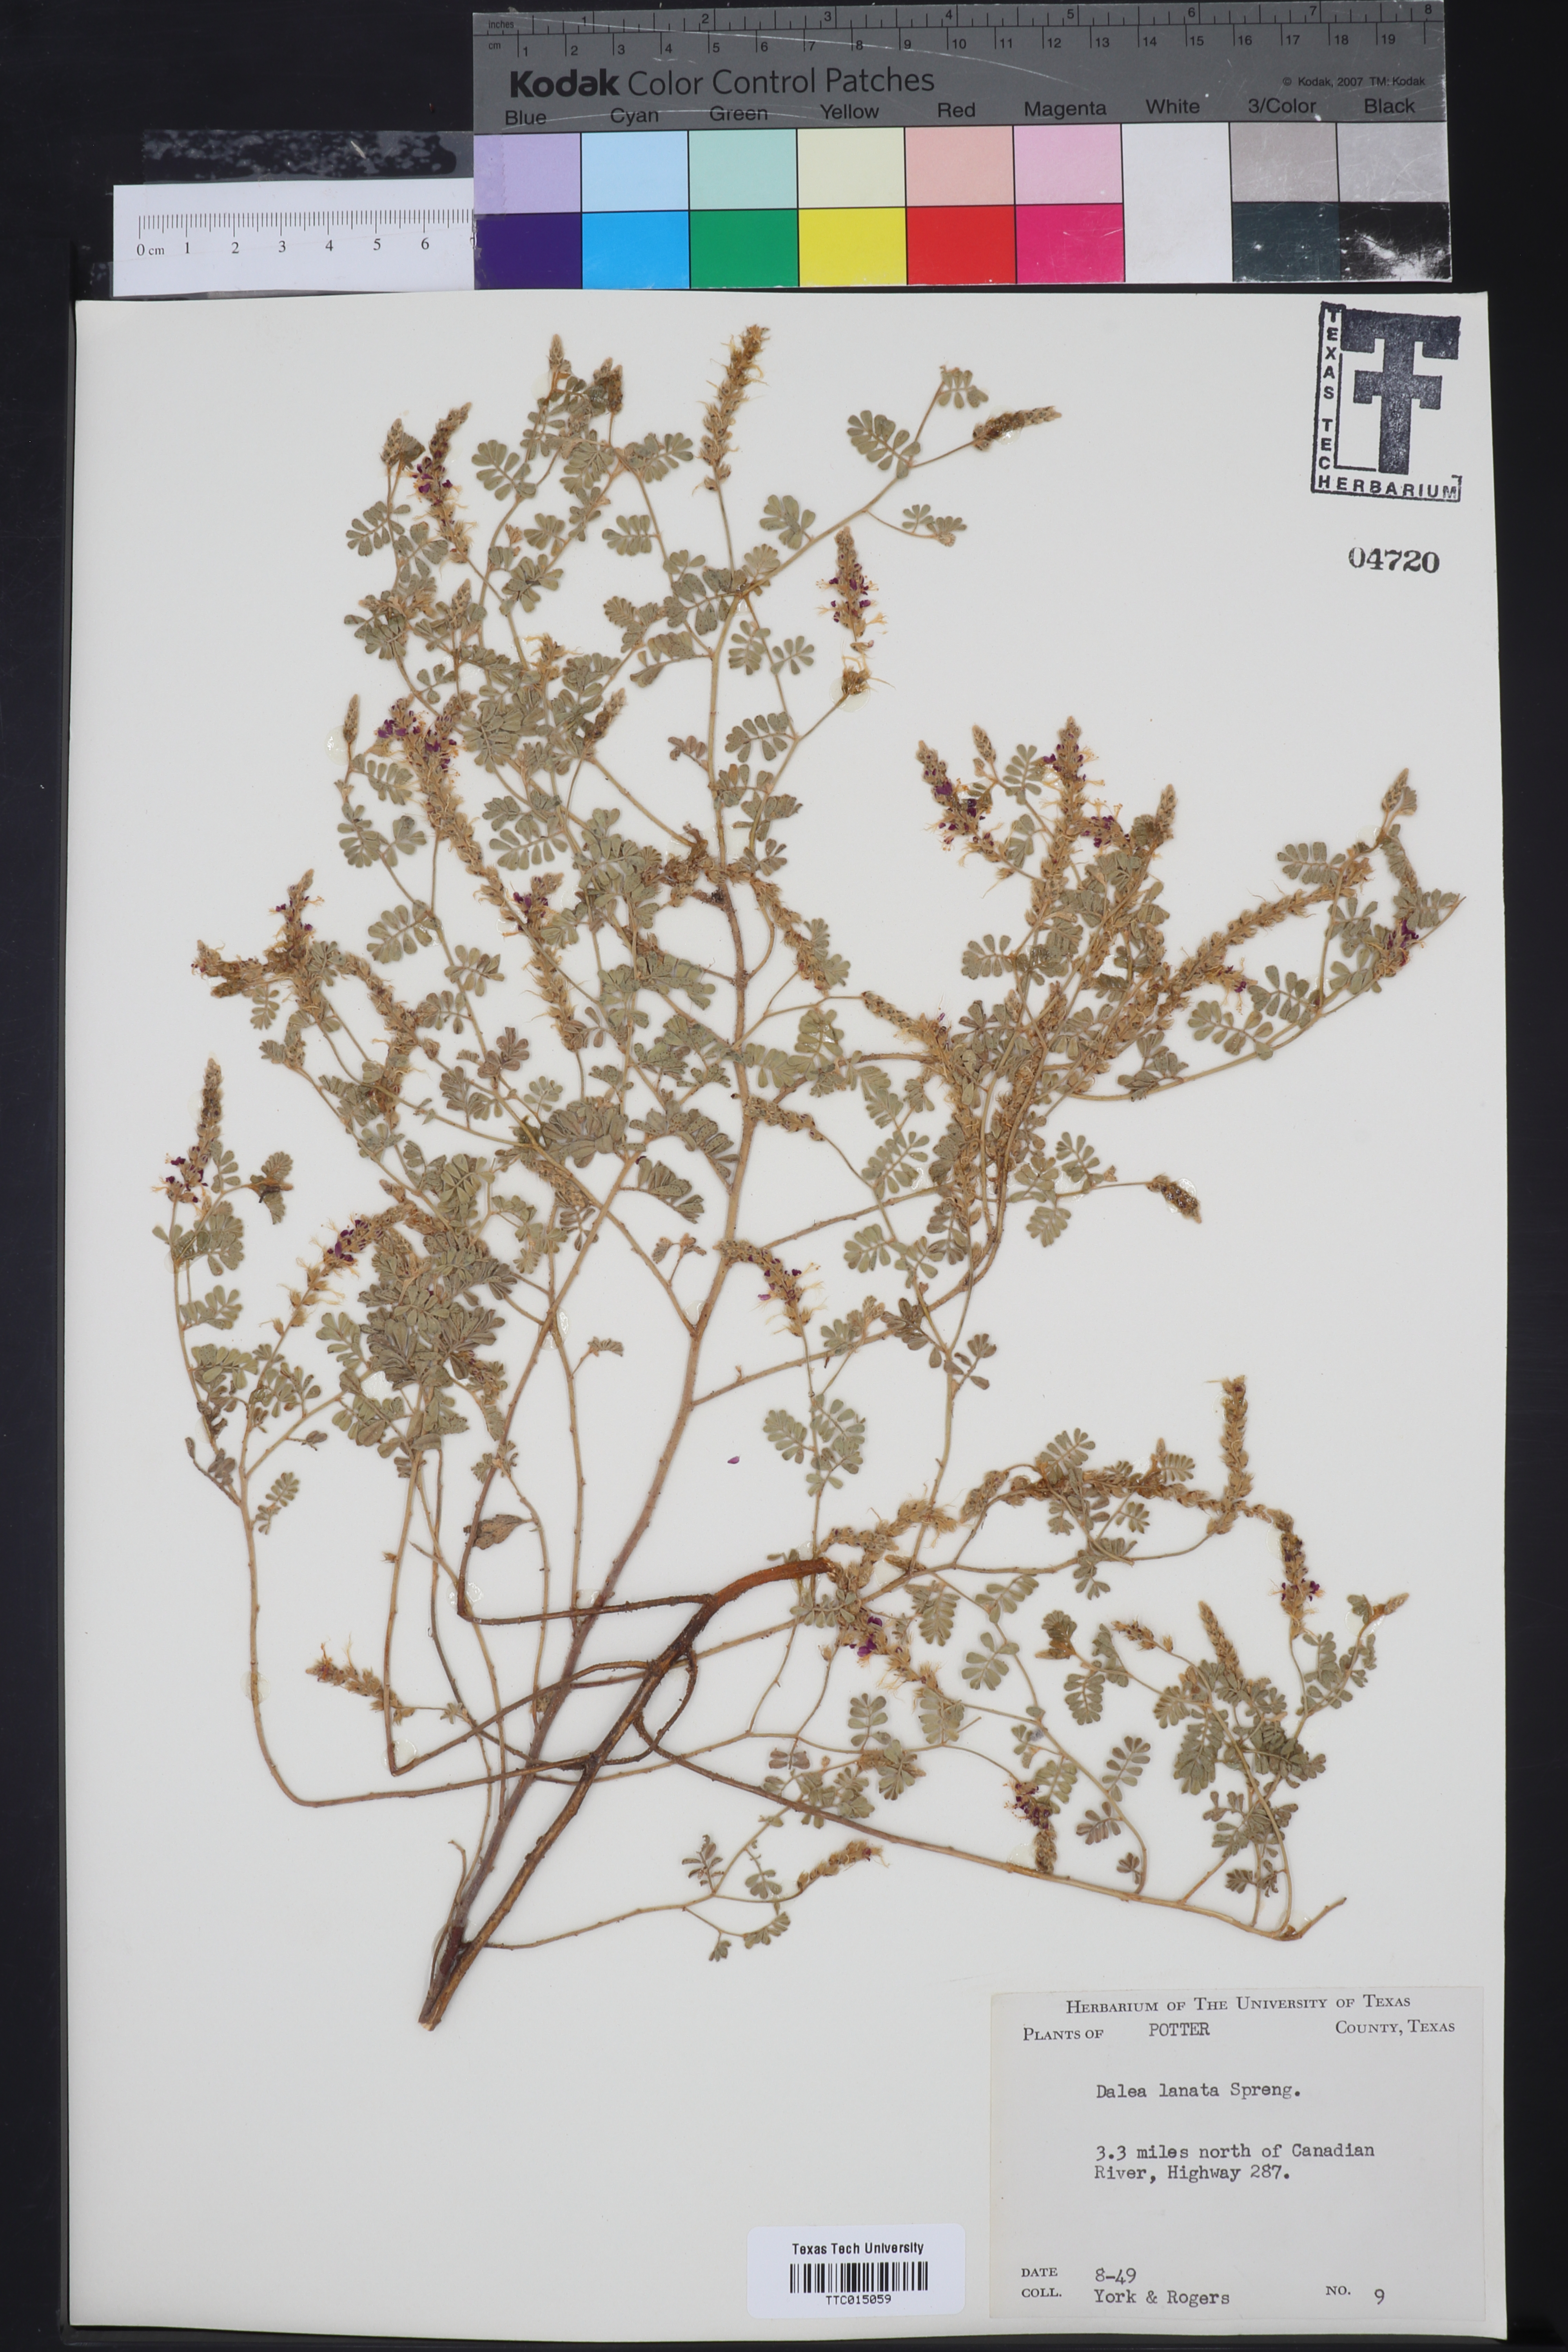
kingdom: Plantae
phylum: Tracheophyta
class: Magnoliopsida
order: Fabales
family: Fabaceae
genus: Dalea
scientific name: Dalea lanata
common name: Woolly dalea
